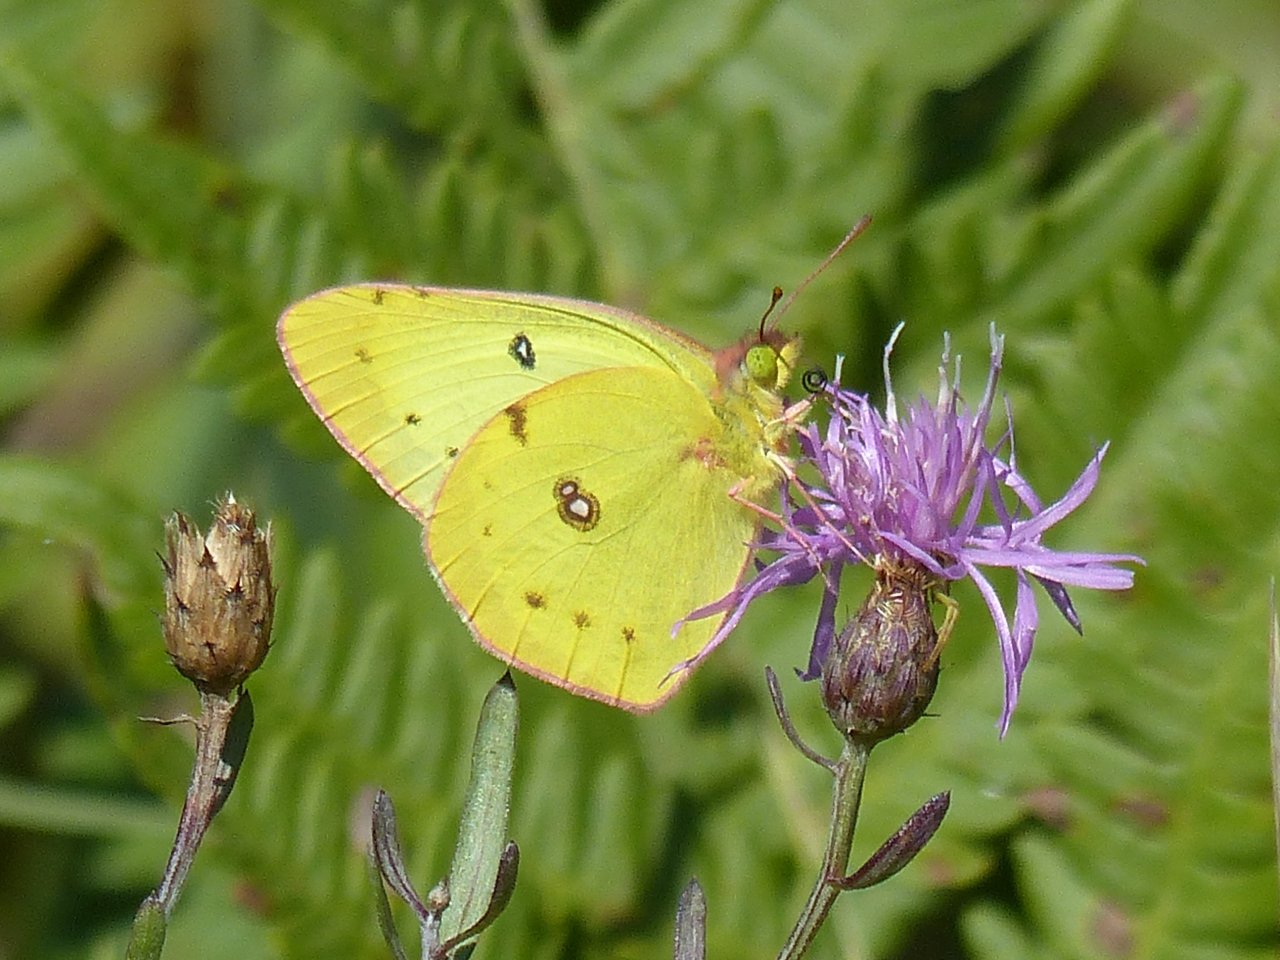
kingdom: Animalia
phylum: Arthropoda
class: Insecta
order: Lepidoptera
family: Pieridae
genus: Colias
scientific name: Colias philodice
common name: Clouded Sulphur
